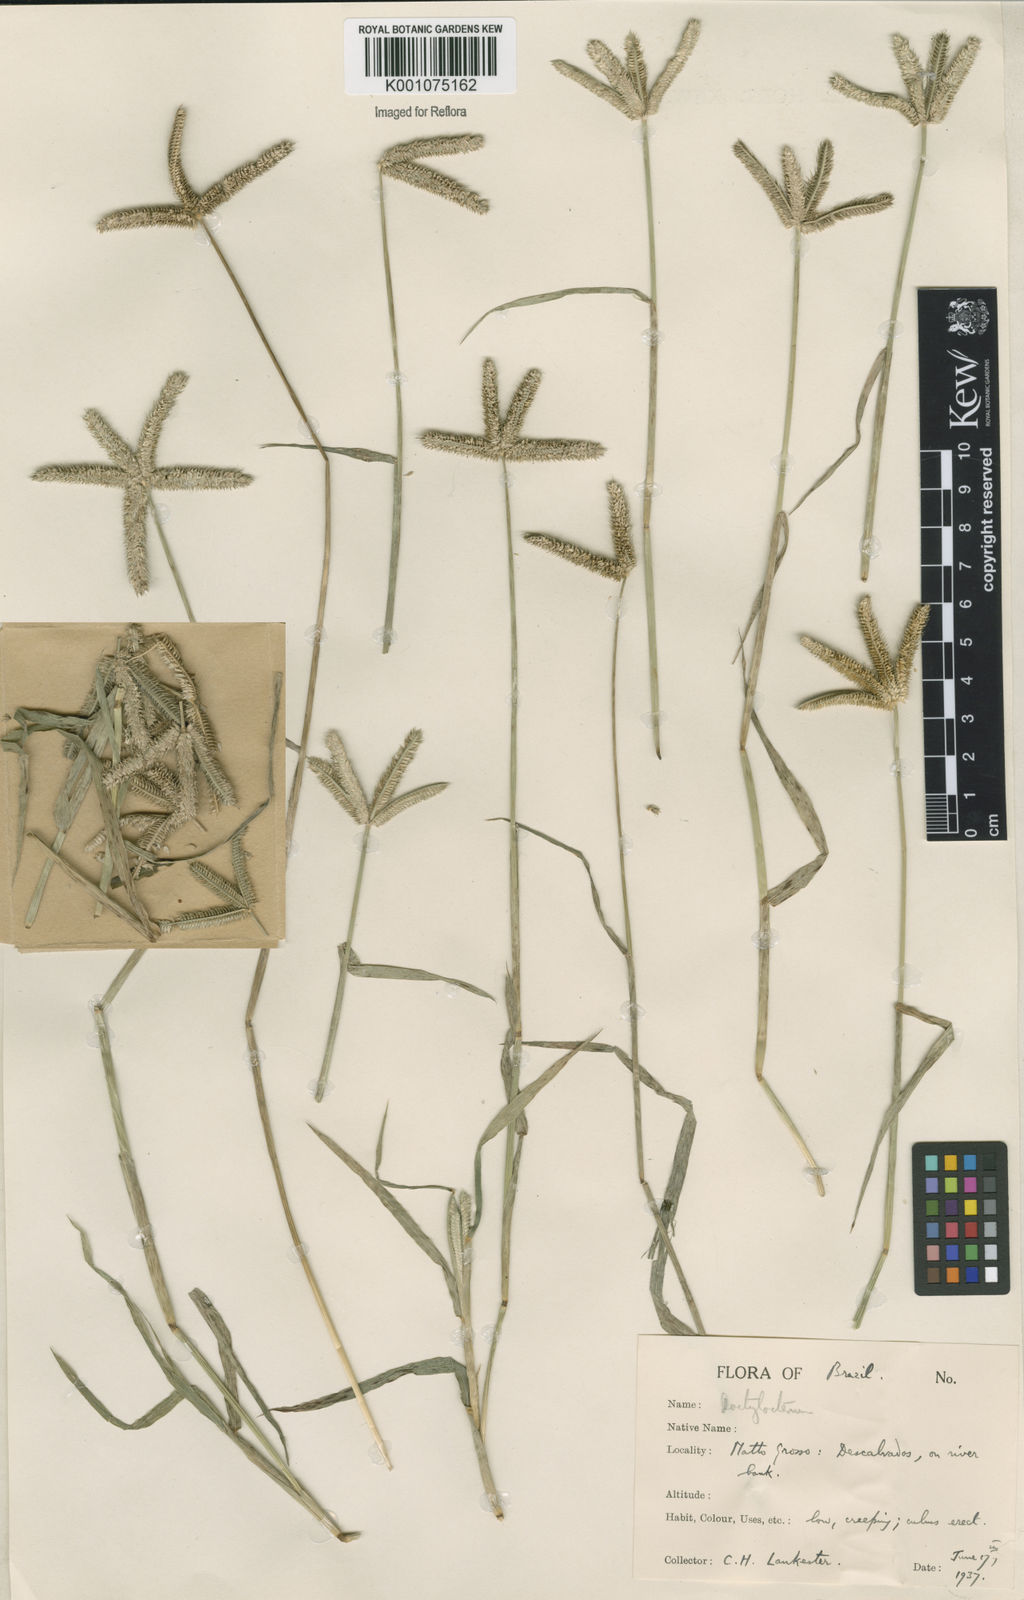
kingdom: Plantae
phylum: Tracheophyta
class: Liliopsida
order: Poales
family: Poaceae
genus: Dactyloctenium
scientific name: Dactyloctenium aegyptium
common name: Egyptian grass
